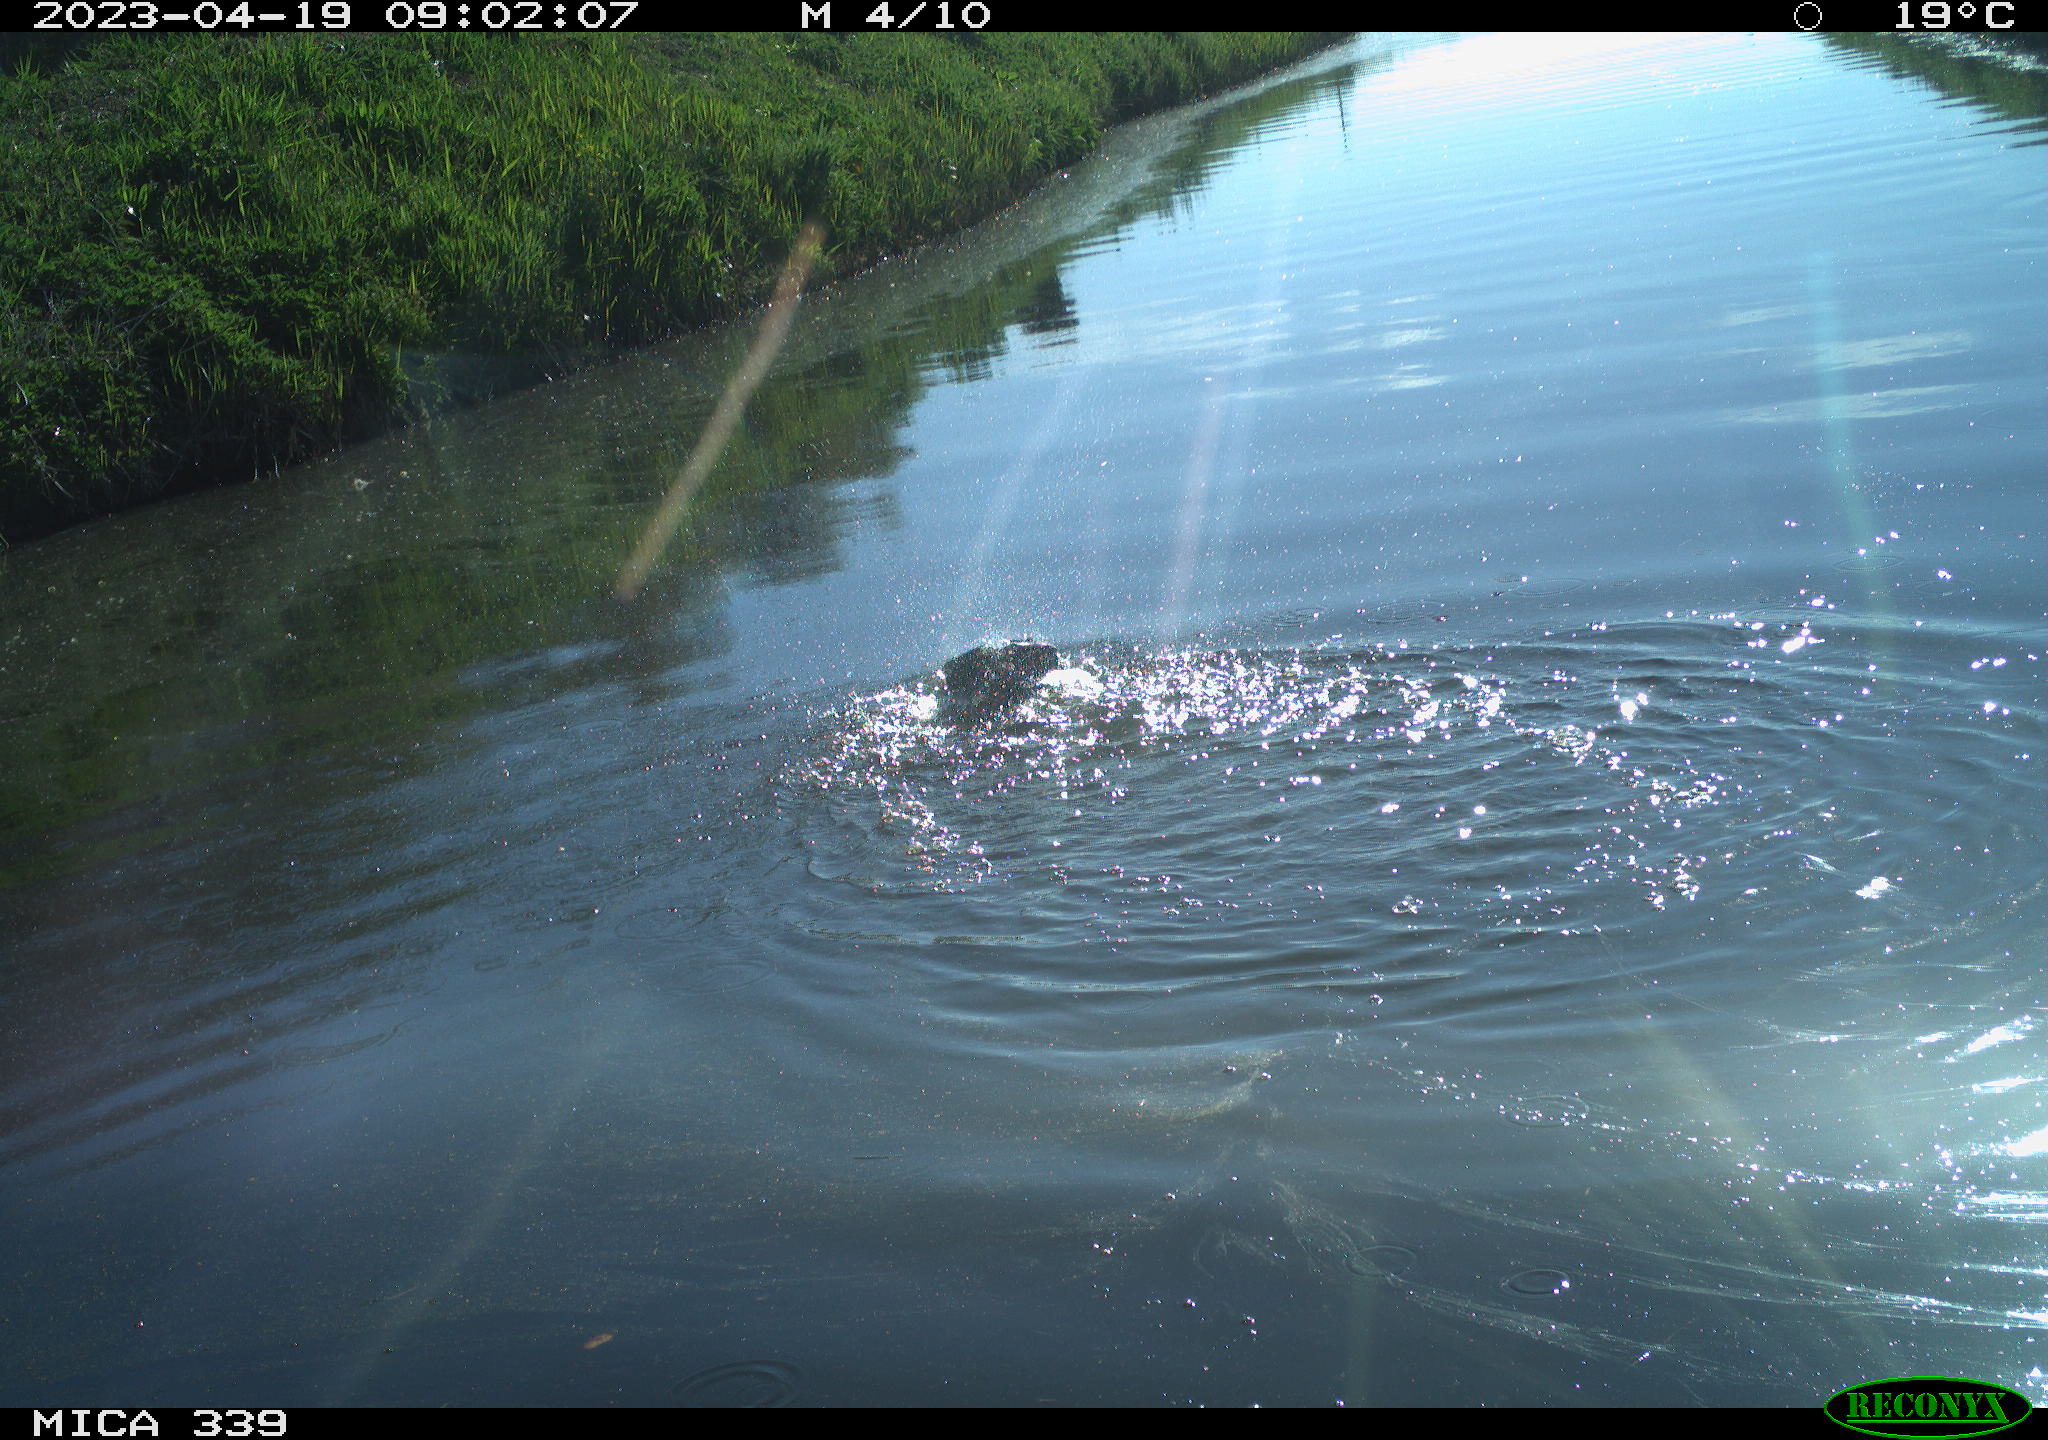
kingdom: Animalia
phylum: Chordata
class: Aves
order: Suliformes
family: Phalacrocoracidae
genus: Phalacrocorax
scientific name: Phalacrocorax carbo
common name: Great cormorant
